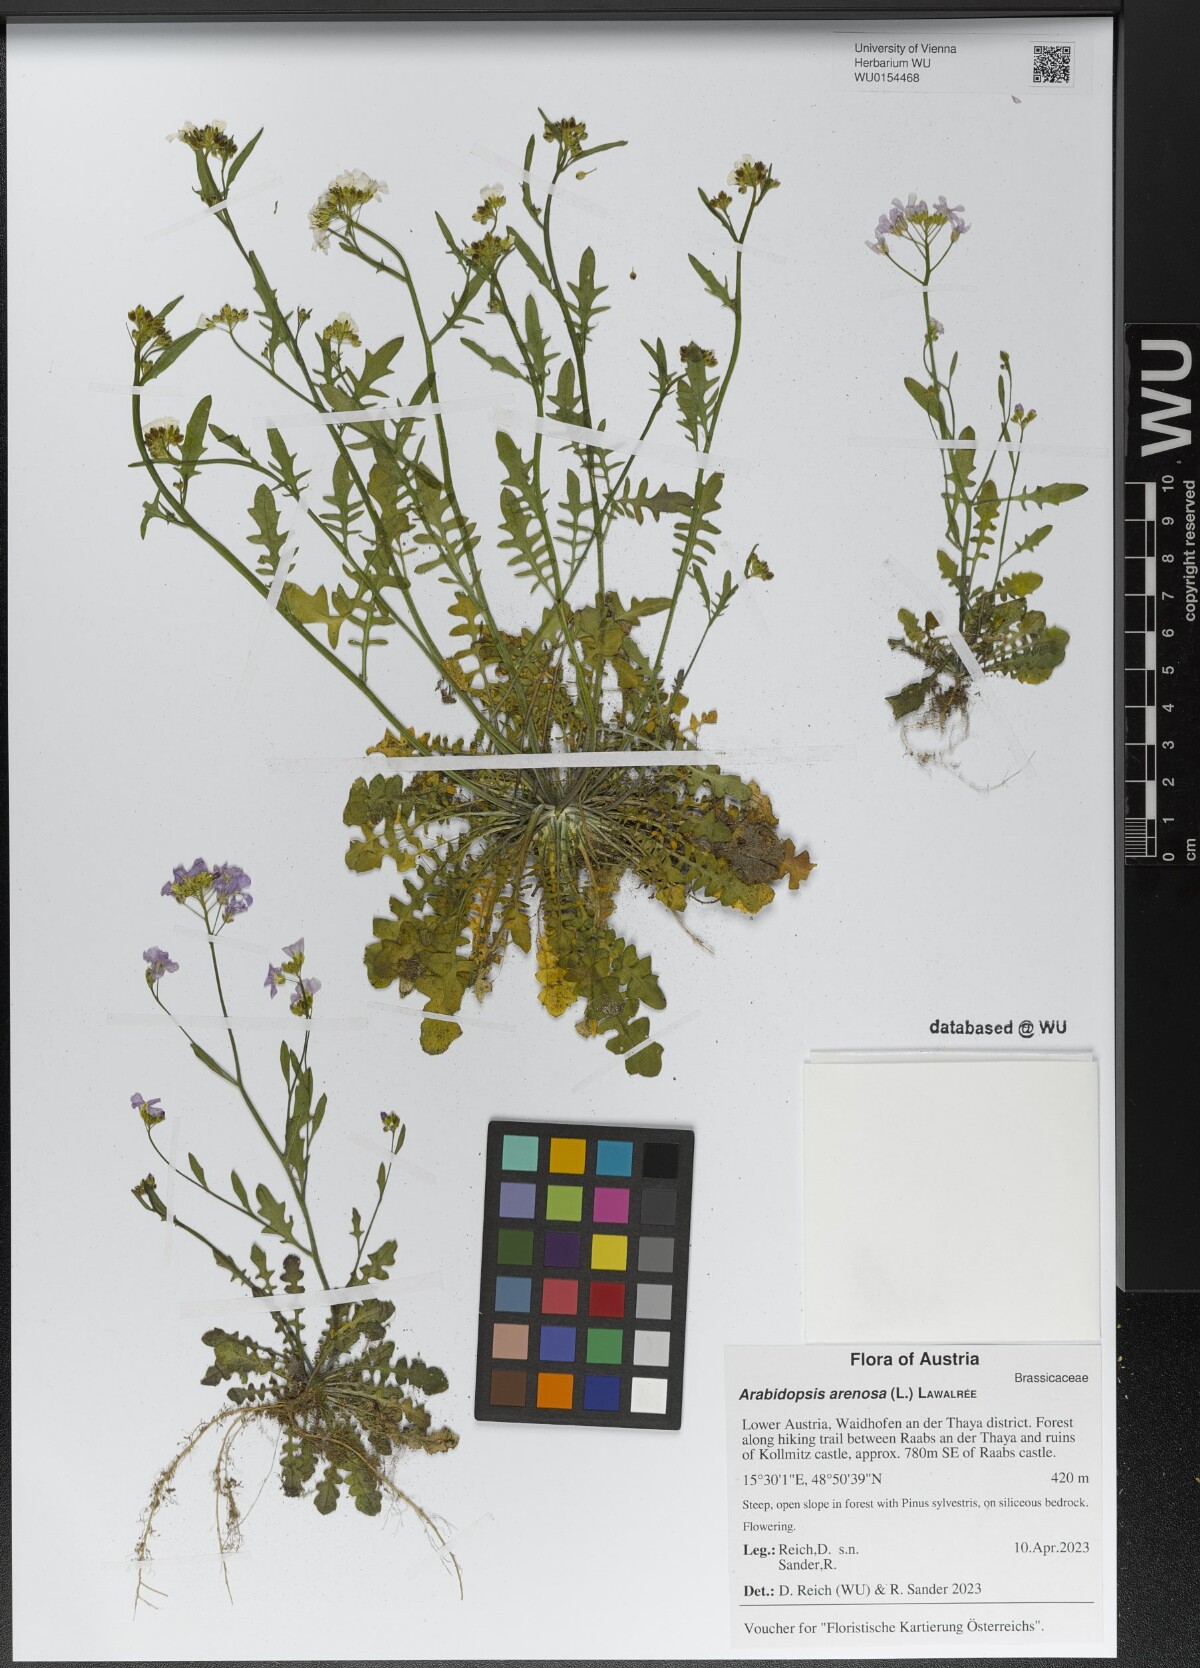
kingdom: Plantae
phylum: Tracheophyta
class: Magnoliopsida
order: Brassicales
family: Brassicaceae
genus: Arabidopsis
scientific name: Arabidopsis arenosa
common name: Sand rock-cress
